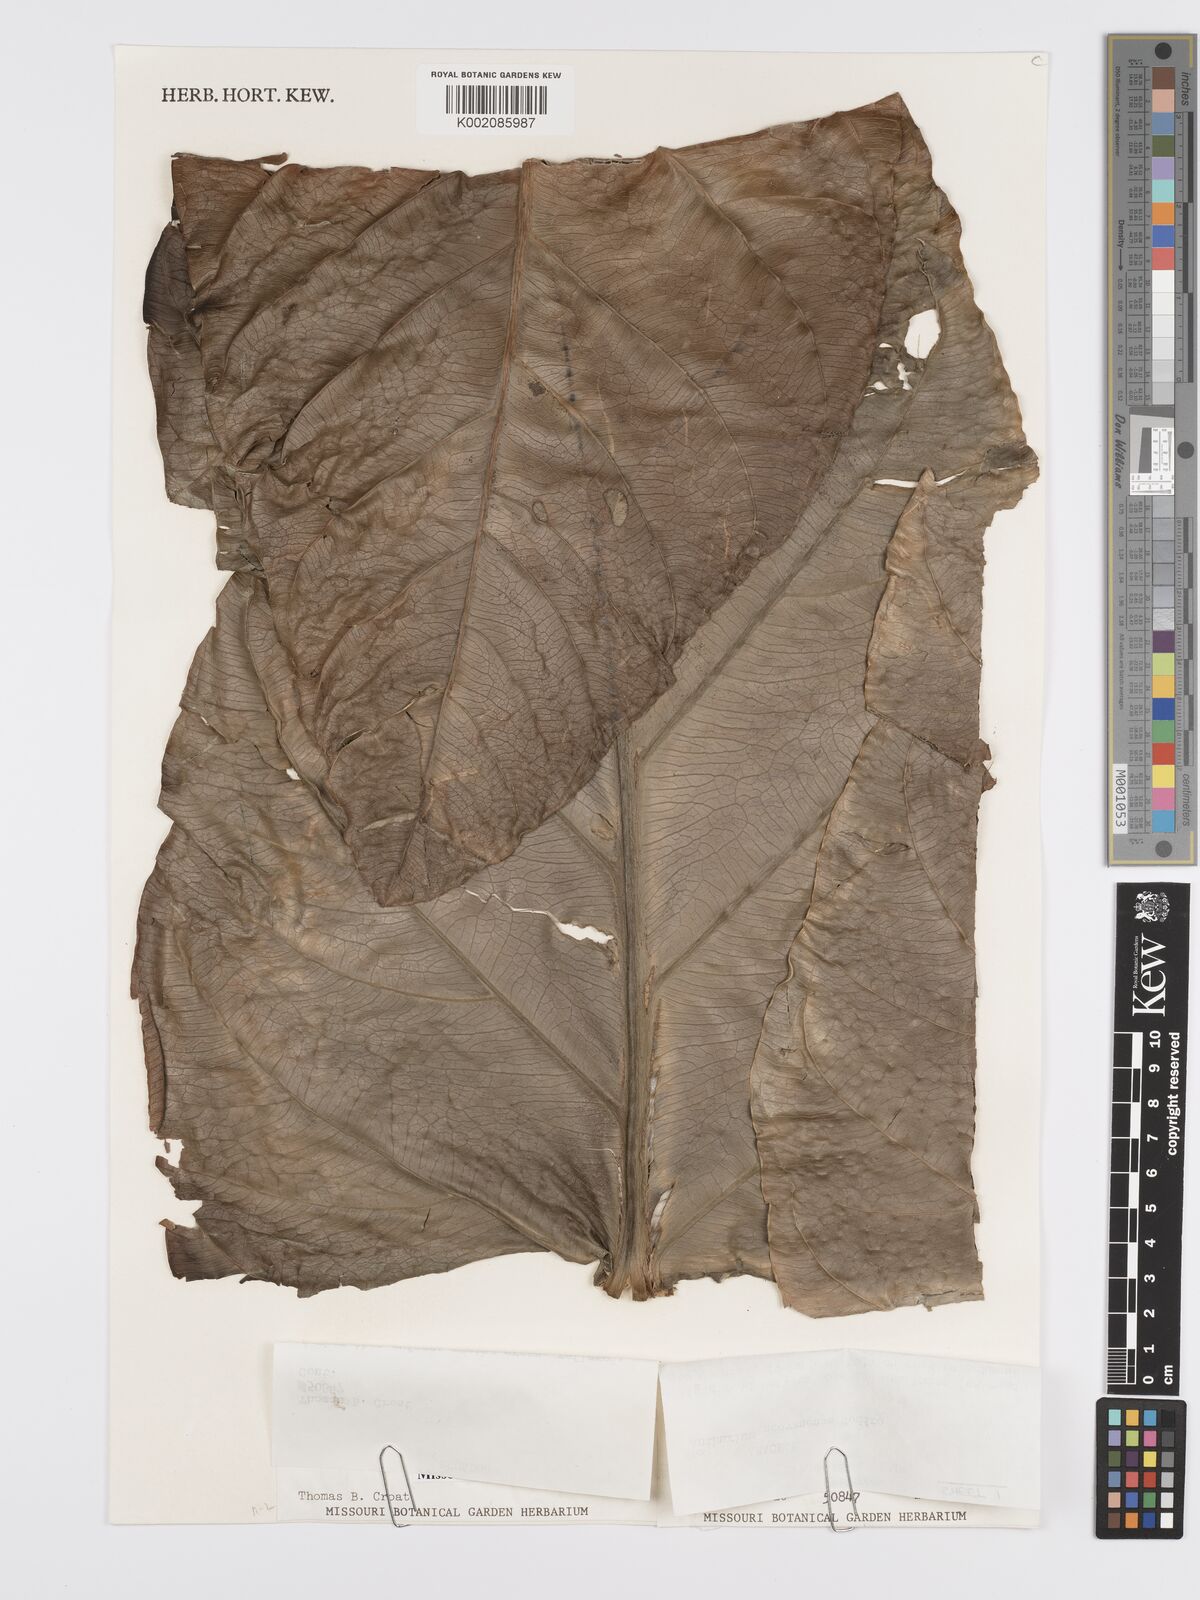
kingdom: Plantae
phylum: Tracheophyta
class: Liliopsida
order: Alismatales
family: Araceae
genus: Anthurium
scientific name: Anthurium dombeyanum
